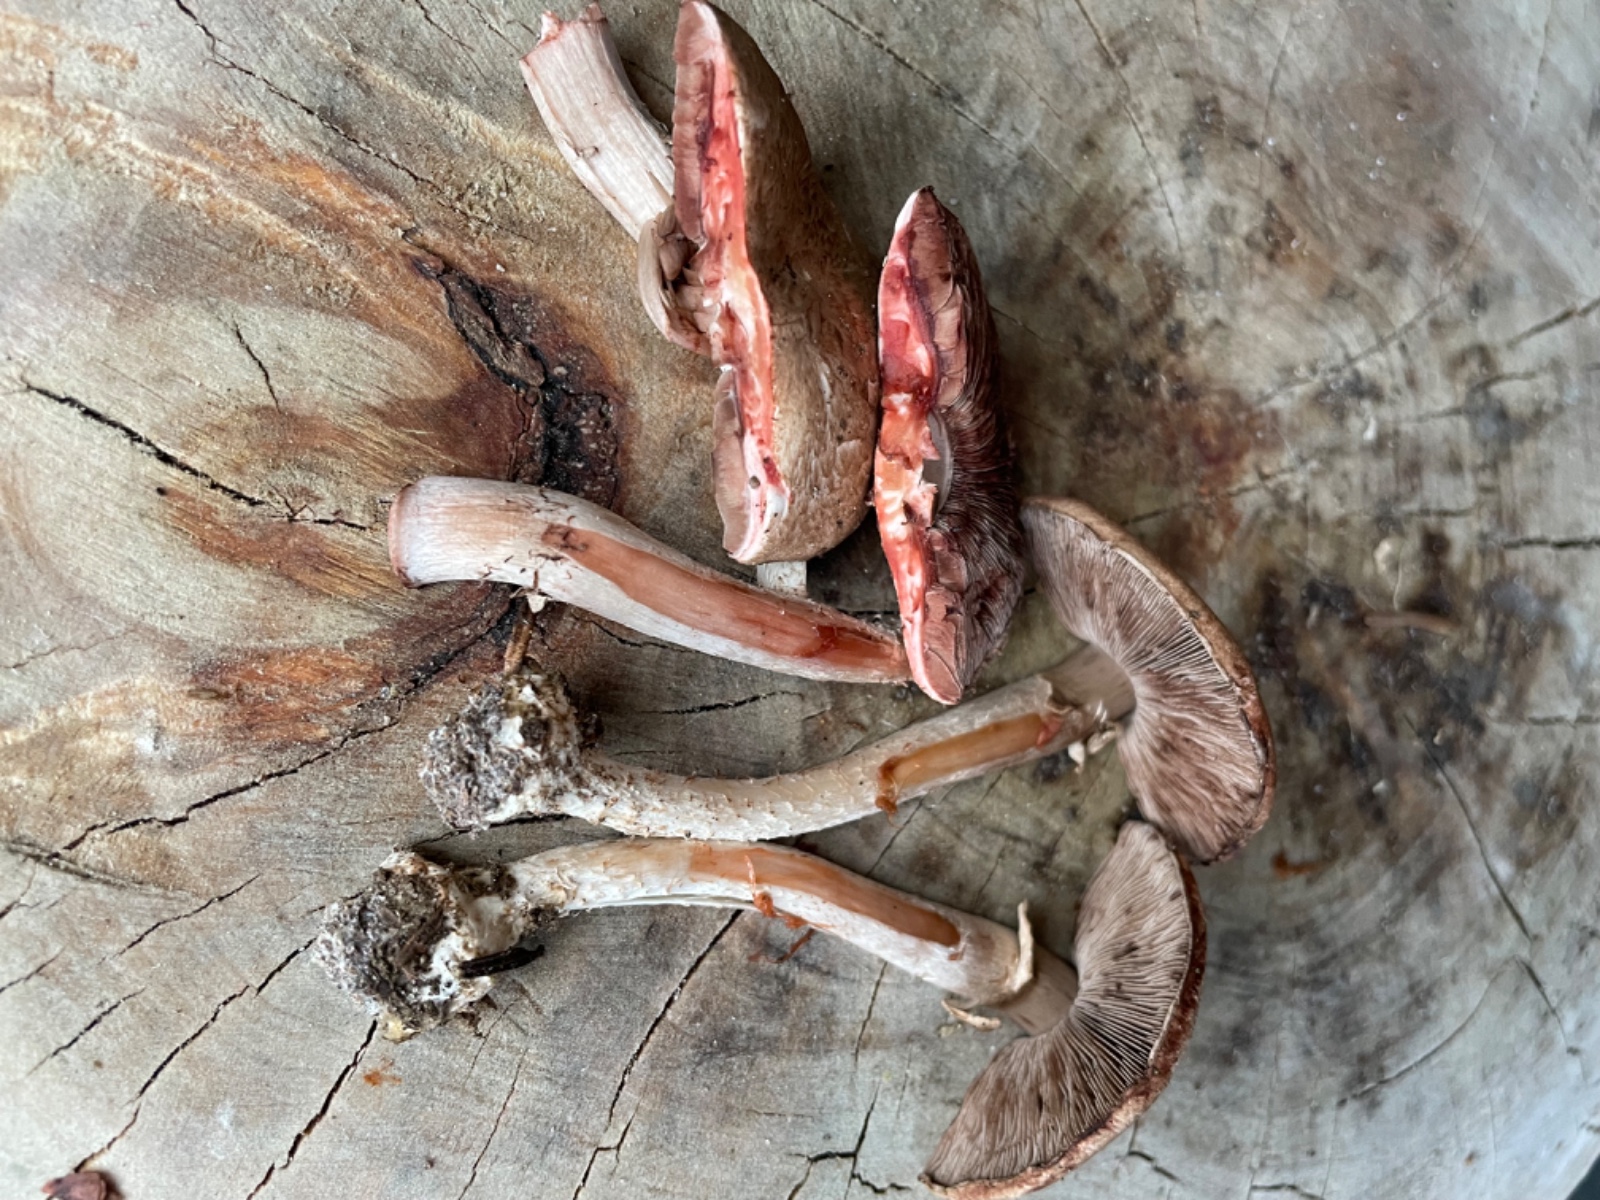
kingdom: Fungi
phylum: Basidiomycota
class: Agaricomycetes
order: Agaricales
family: Agaricaceae
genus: Agaricus
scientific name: Agaricus sylvaticus
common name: lille blod-champignon
